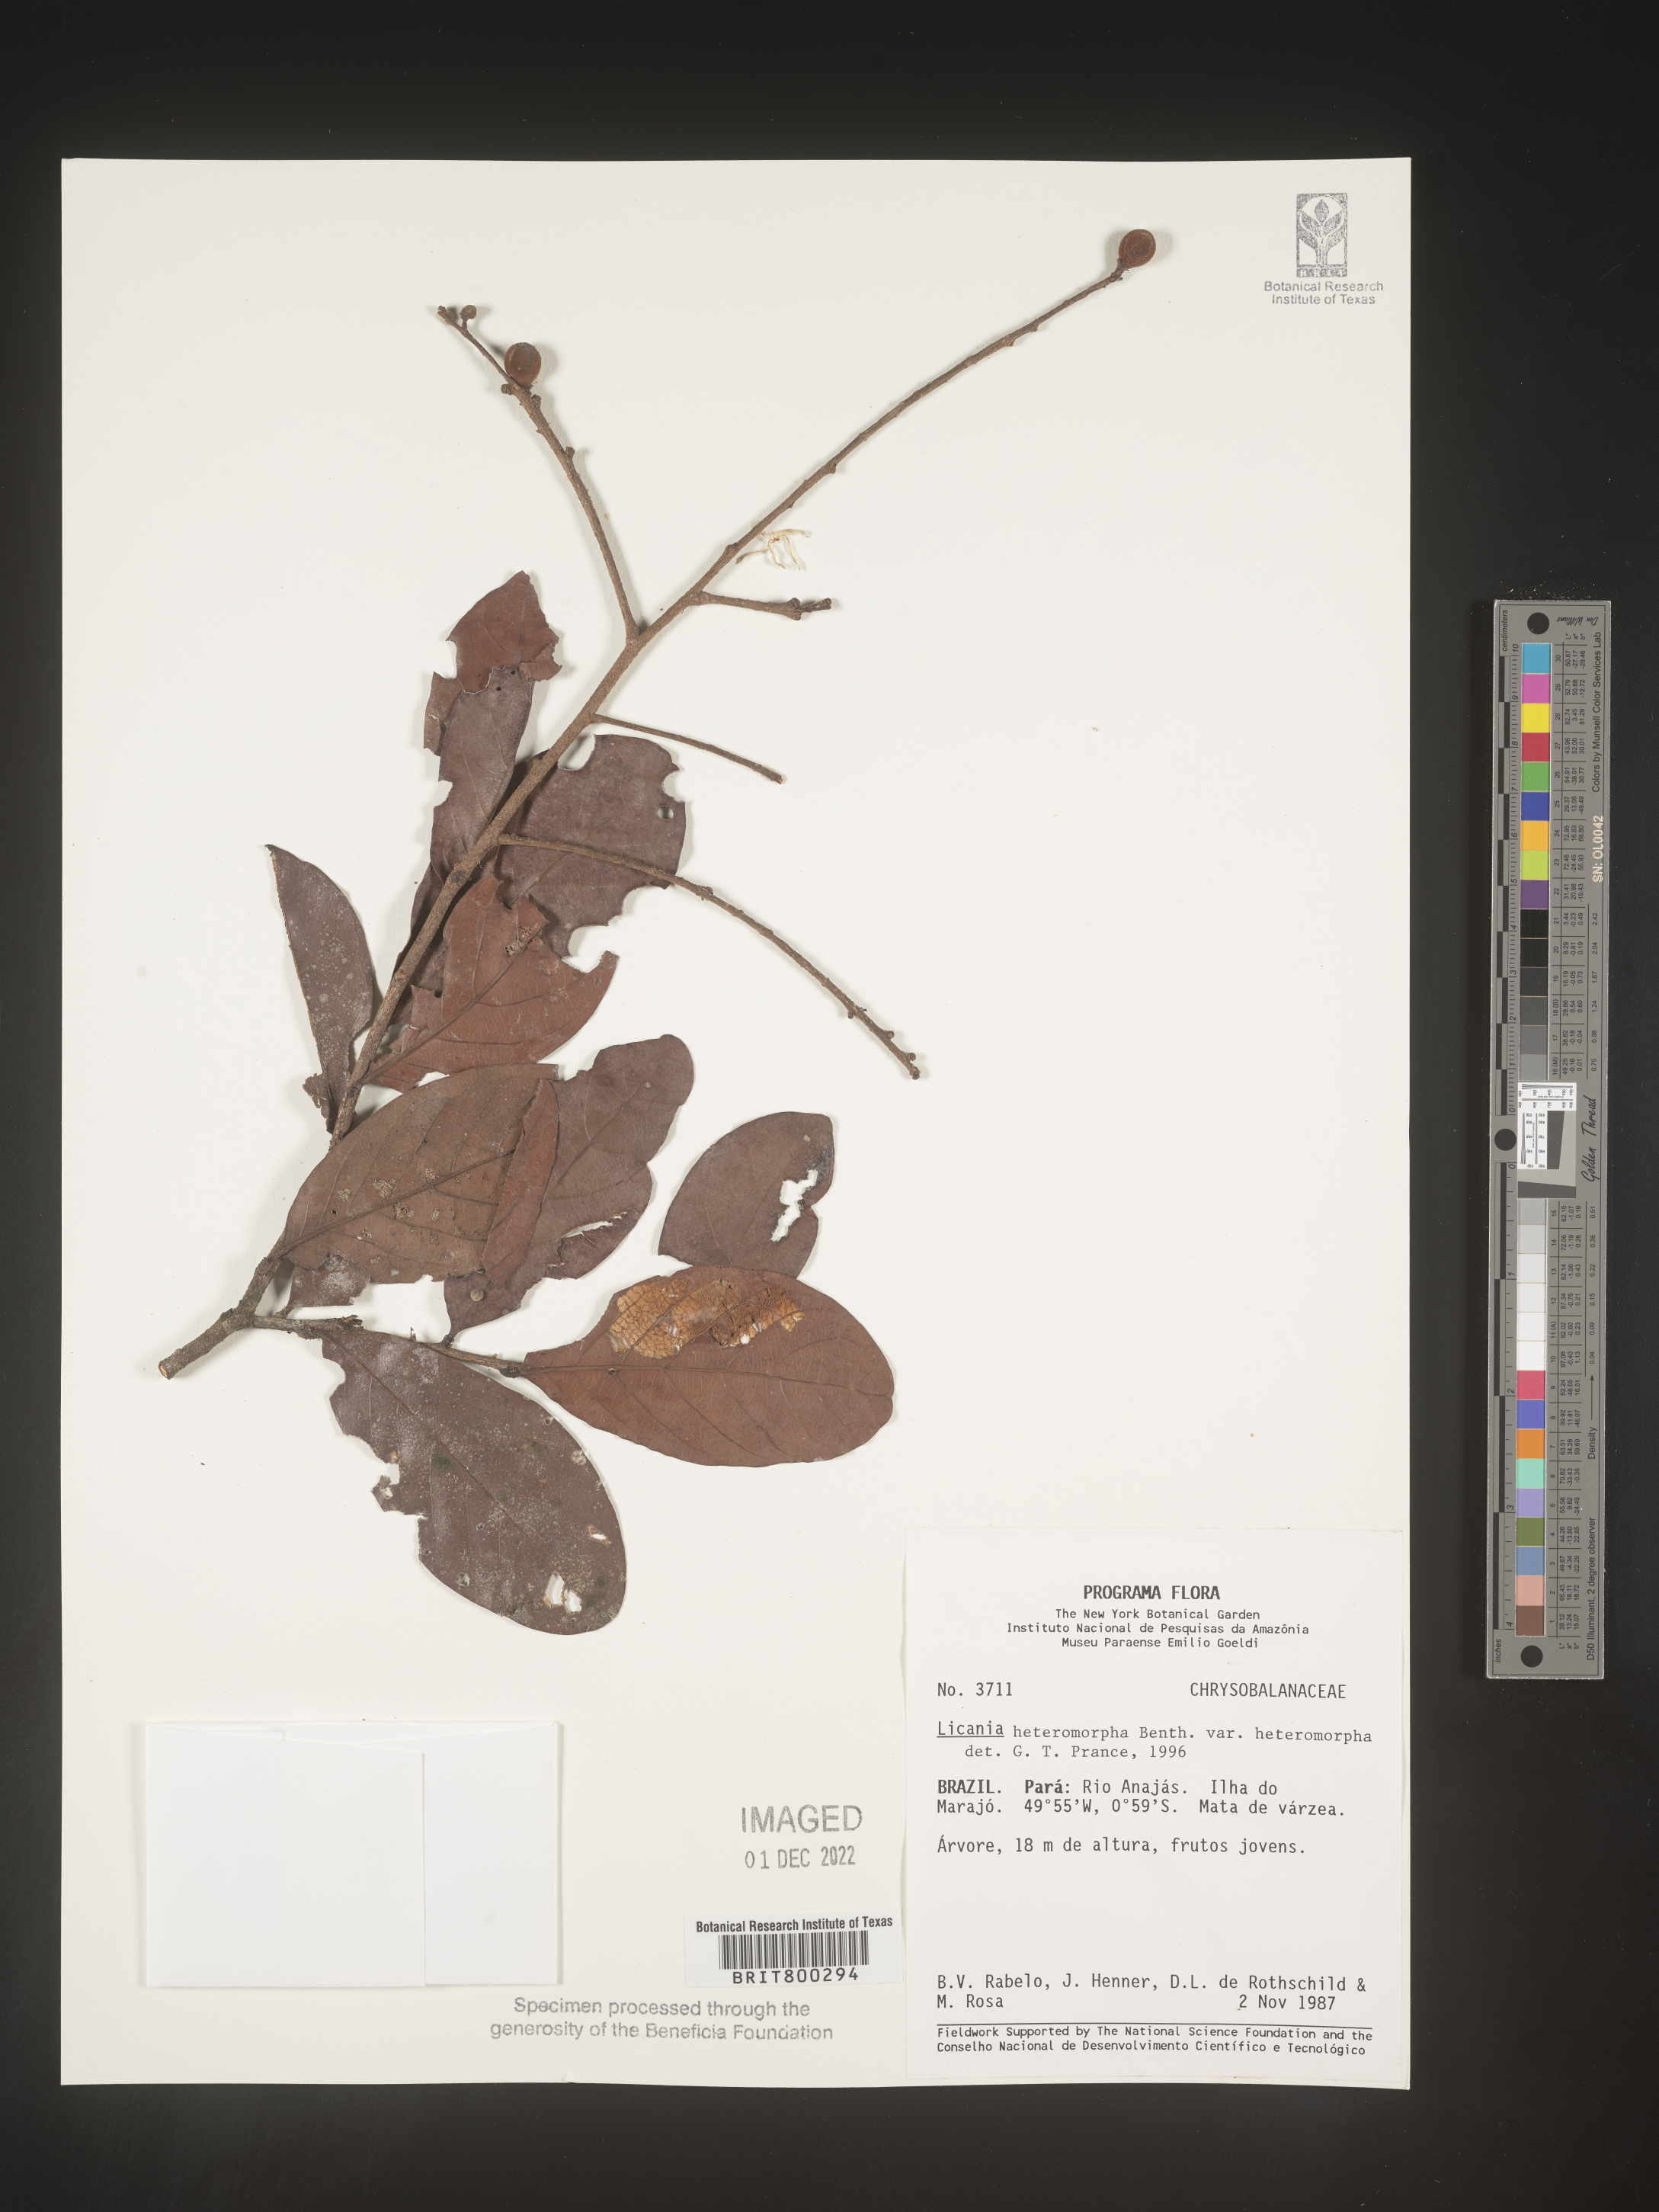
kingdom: Plantae
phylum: Tracheophyta
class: Magnoliopsida
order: Malpighiales
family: Chrysobalanaceae
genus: Geobalanus
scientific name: Geobalanus oblongifolius
